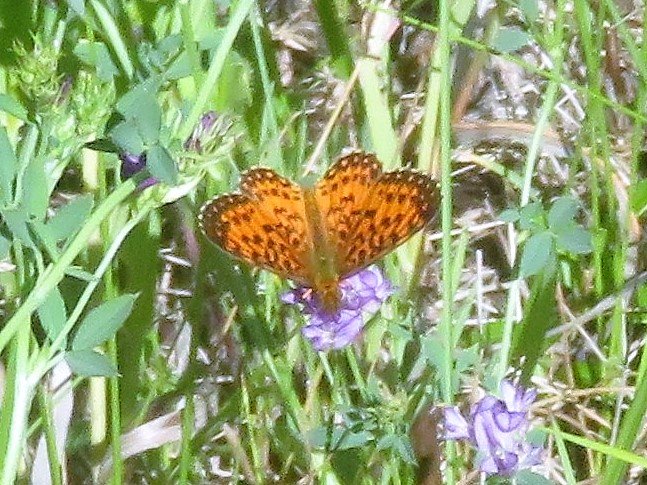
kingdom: Animalia
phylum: Arthropoda
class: Insecta
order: Lepidoptera
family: Nymphalidae
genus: Boloria
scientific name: Boloria selene
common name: Silver-bordered Fritillary
